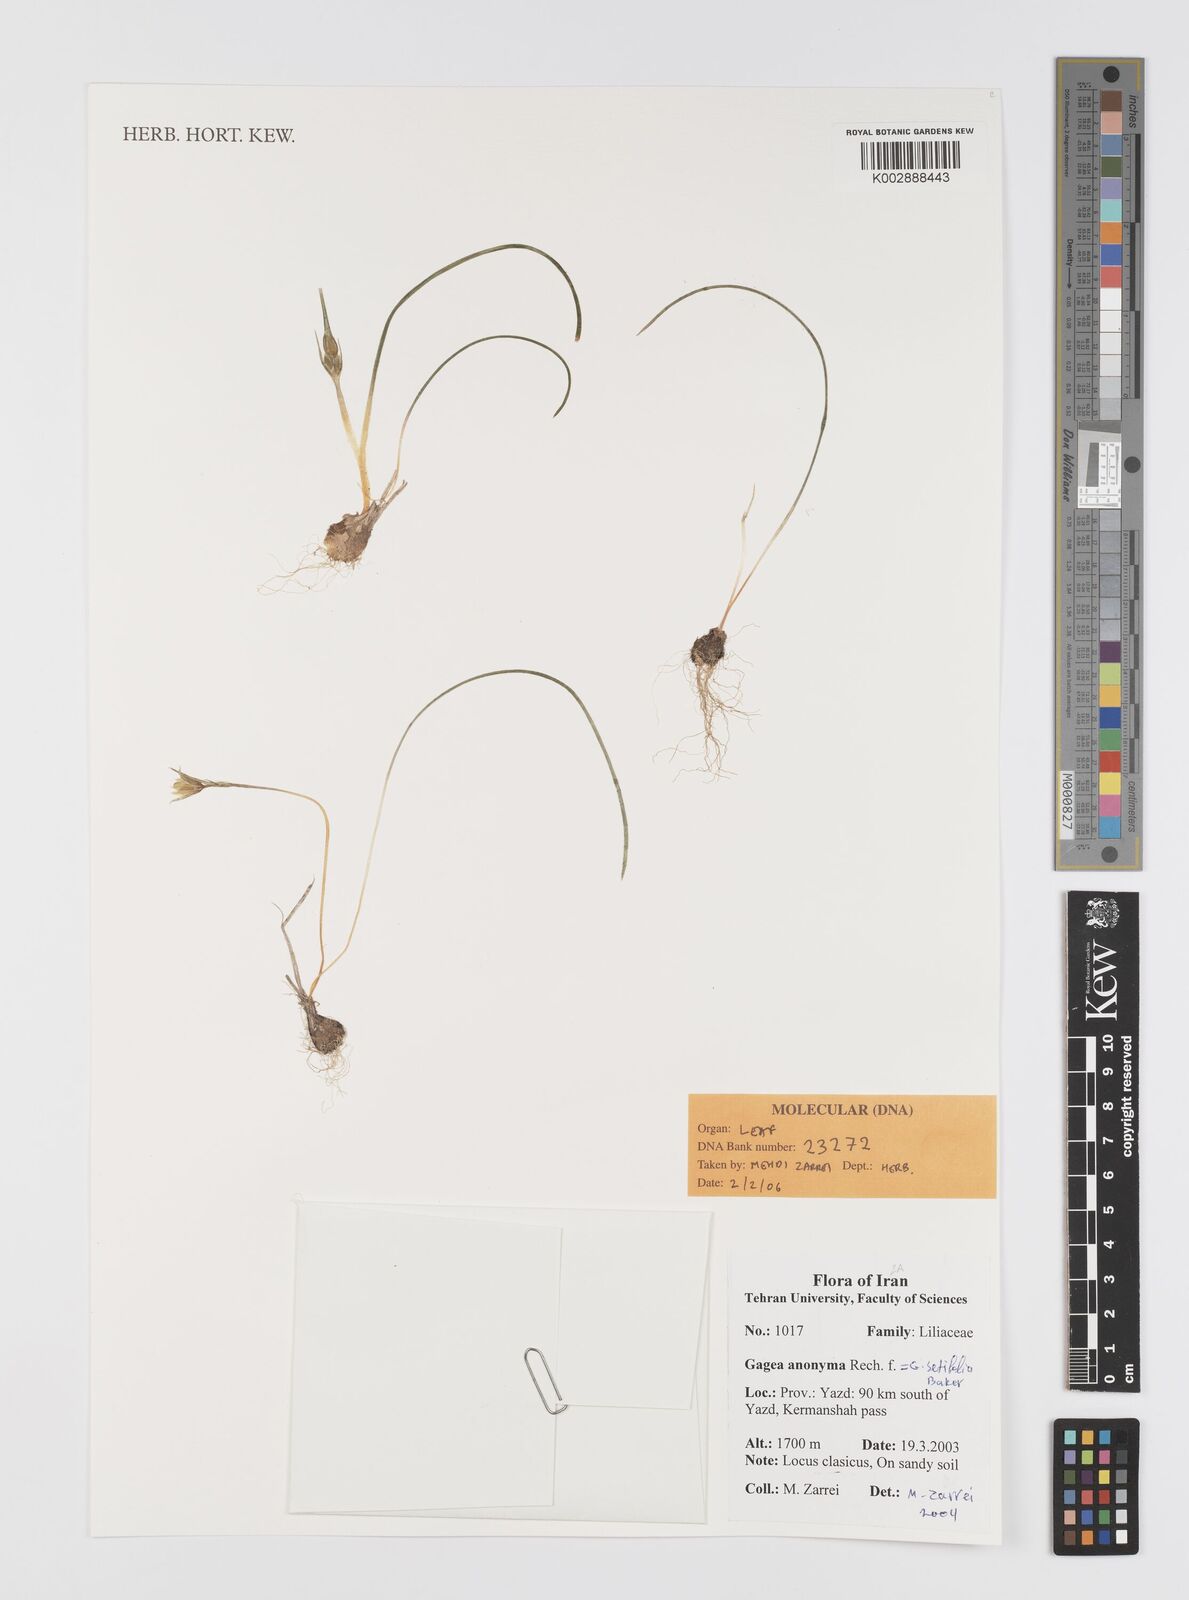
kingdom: Plantae
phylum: Tracheophyta
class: Liliopsida
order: Liliales
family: Liliaceae
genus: Gagea
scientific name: Gagea setifolia
